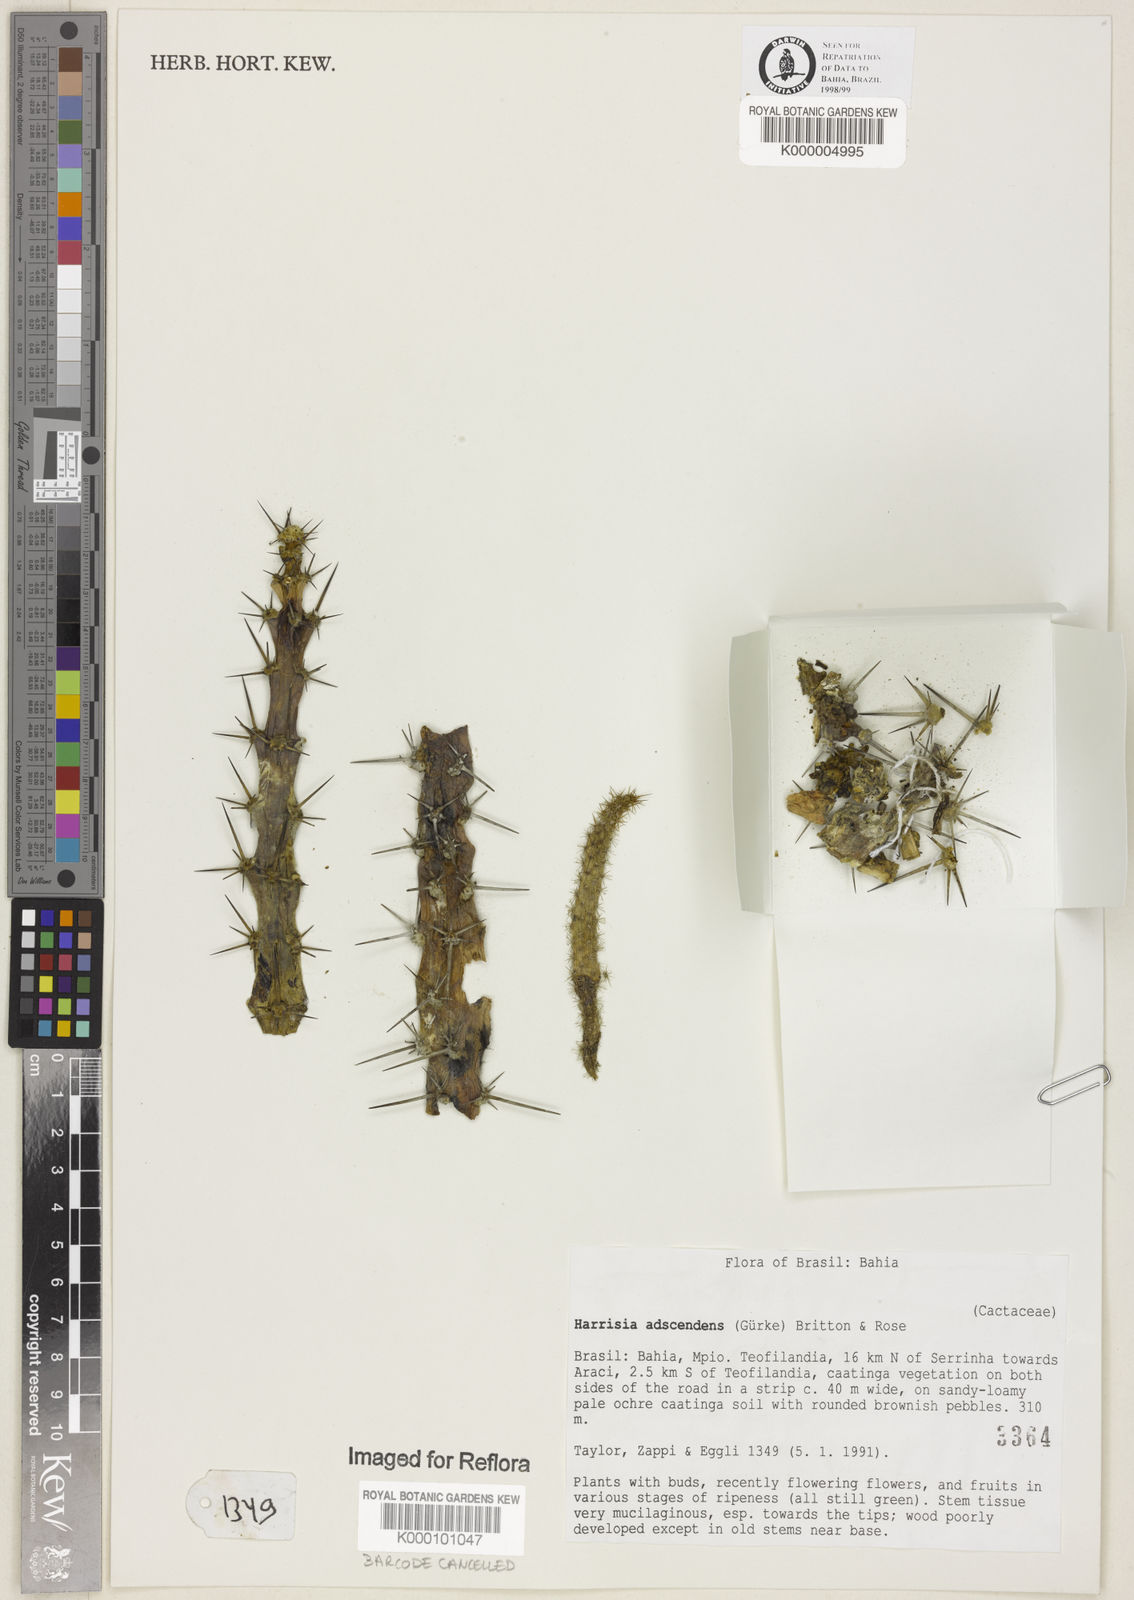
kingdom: Plantae
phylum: Tracheophyta
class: Magnoliopsida
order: Caryophyllales
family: Cactaceae
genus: Harrisia
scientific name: Harrisia adscendens
